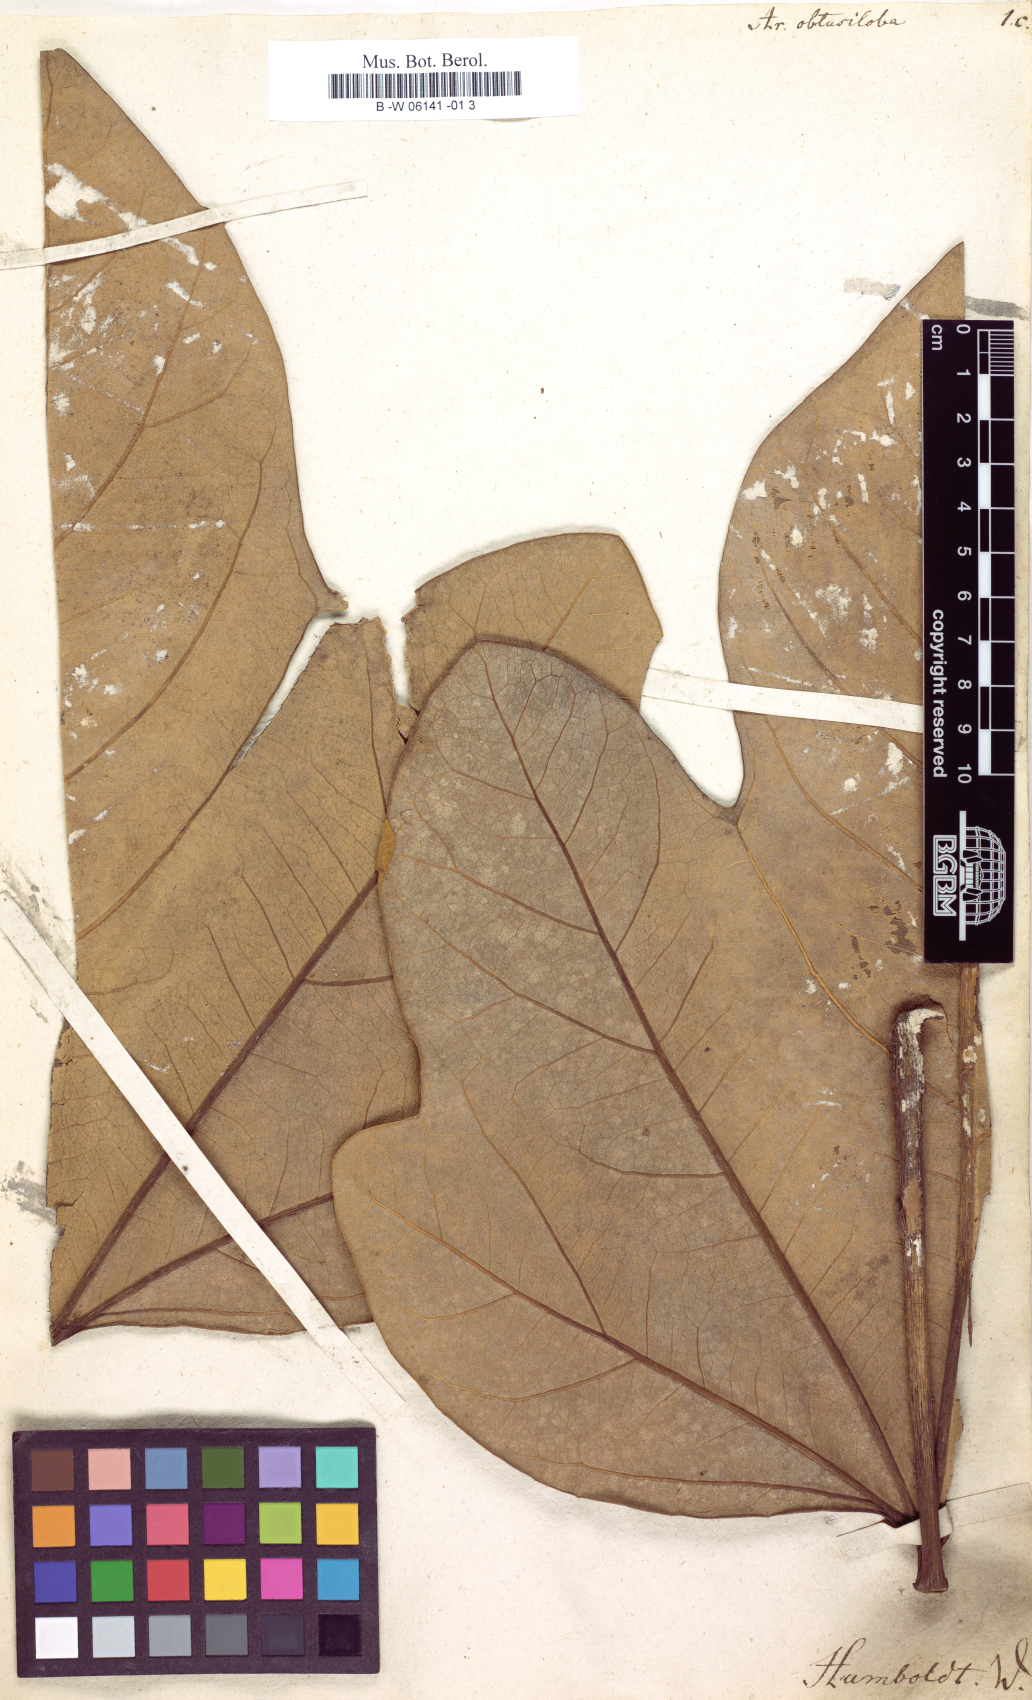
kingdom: Plantae
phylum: Tracheophyta
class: Magnoliopsida
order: Apiales
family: Araliaceae
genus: Oreopanax
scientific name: Oreopanax obtusilobus
